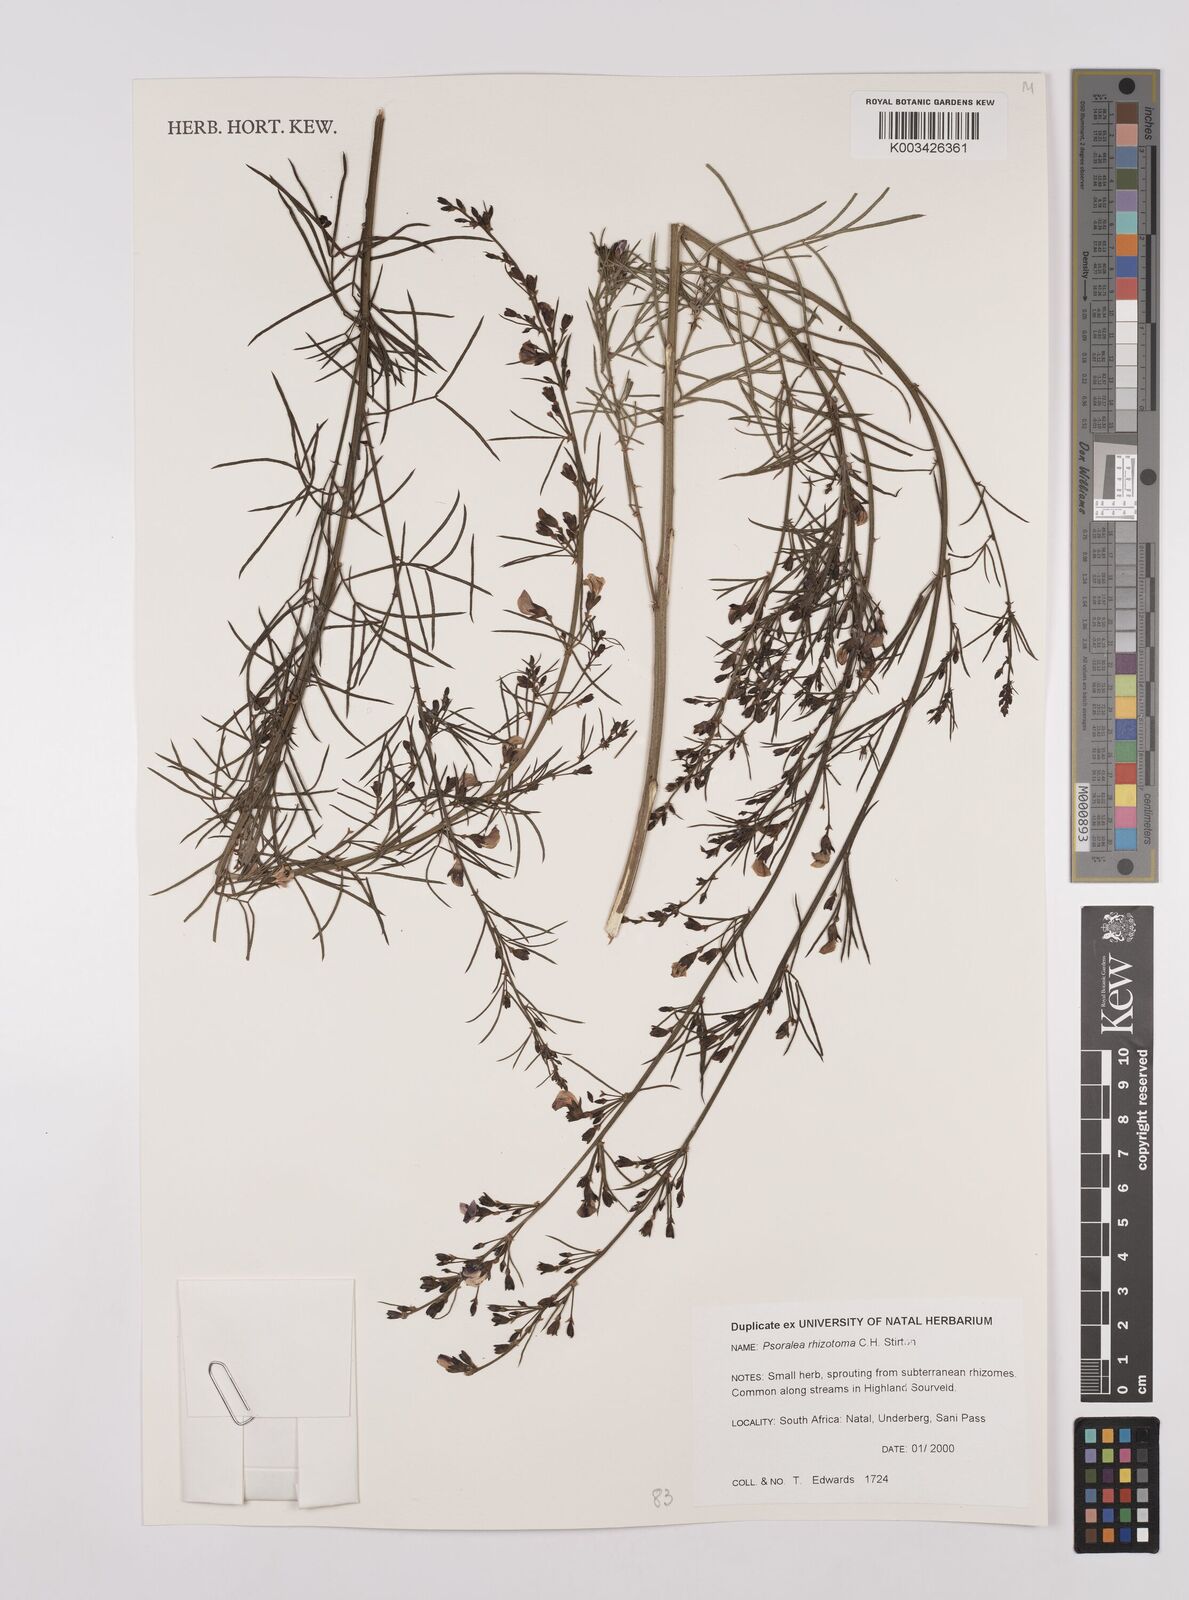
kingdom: Plantae
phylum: Tracheophyta
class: Magnoliopsida
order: Fabales
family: Fabaceae
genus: Psoralea
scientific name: Psoralea rhizotoma
